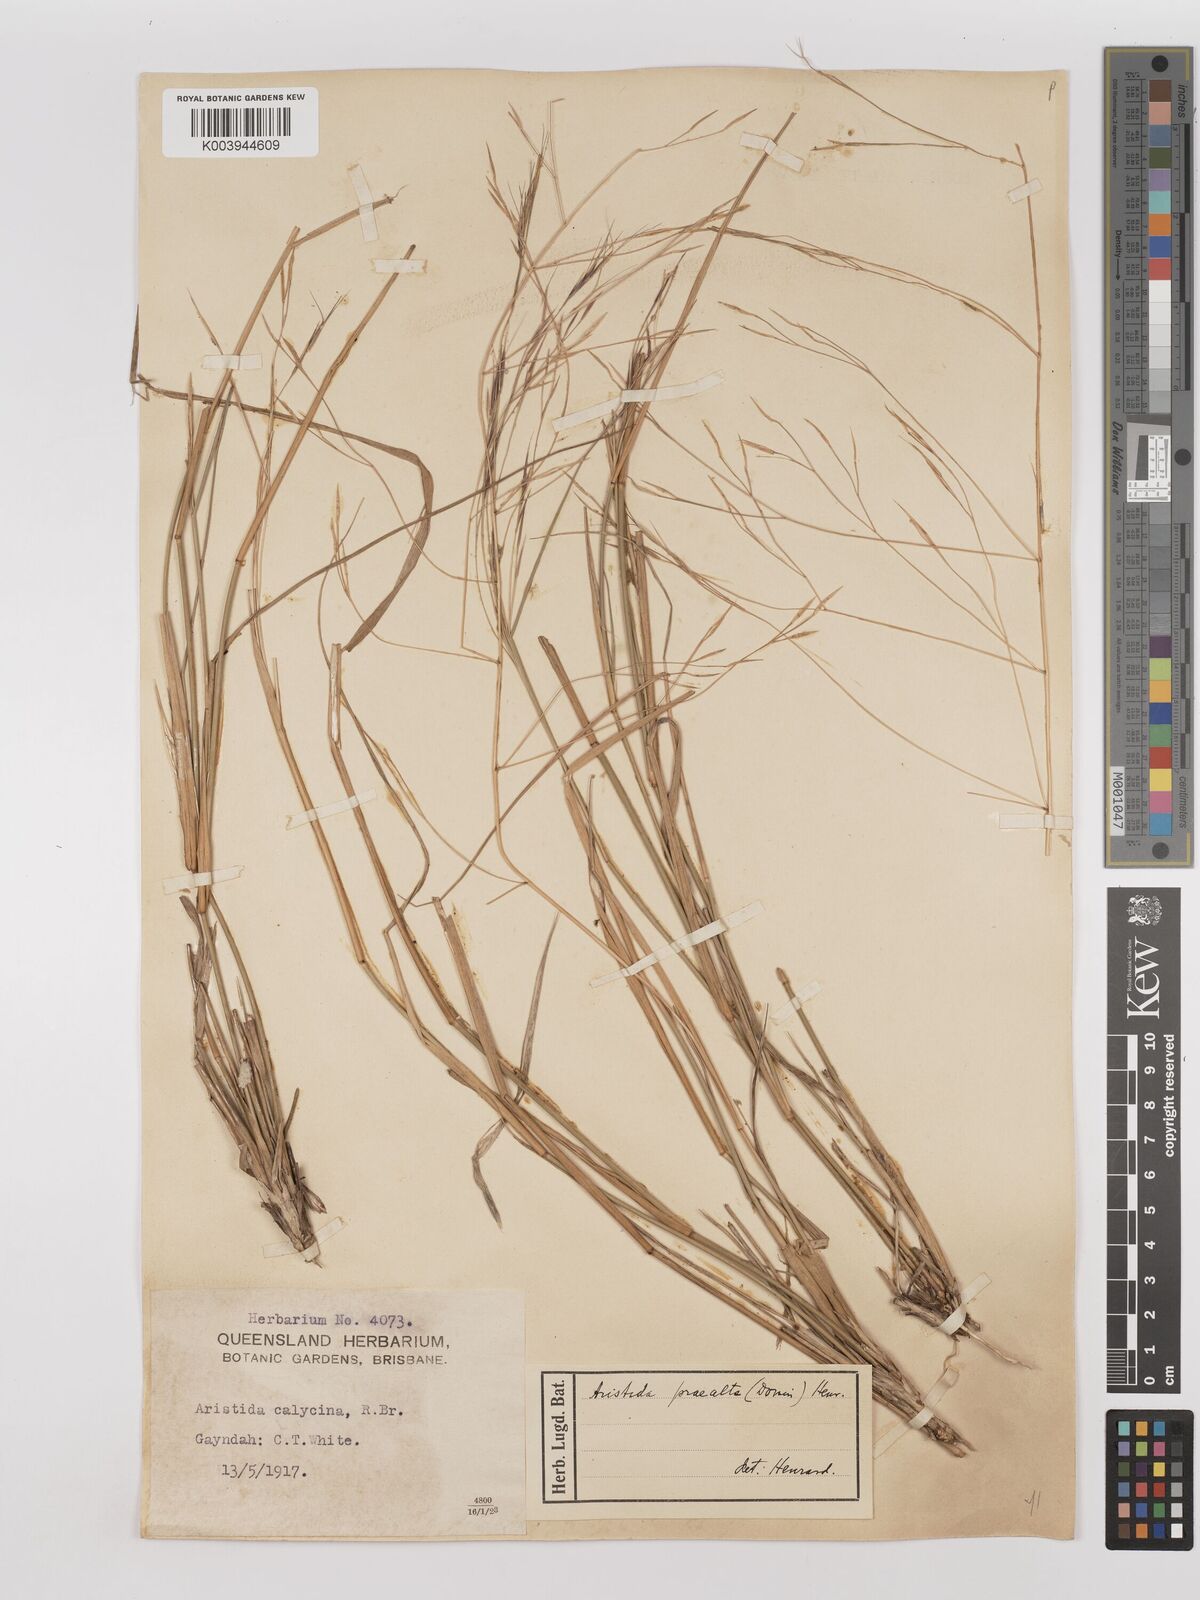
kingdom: Plantae
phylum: Tracheophyta
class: Liliopsida
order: Poales
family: Poaceae
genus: Aristida
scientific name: Aristida calycina
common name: Dark wire grass
